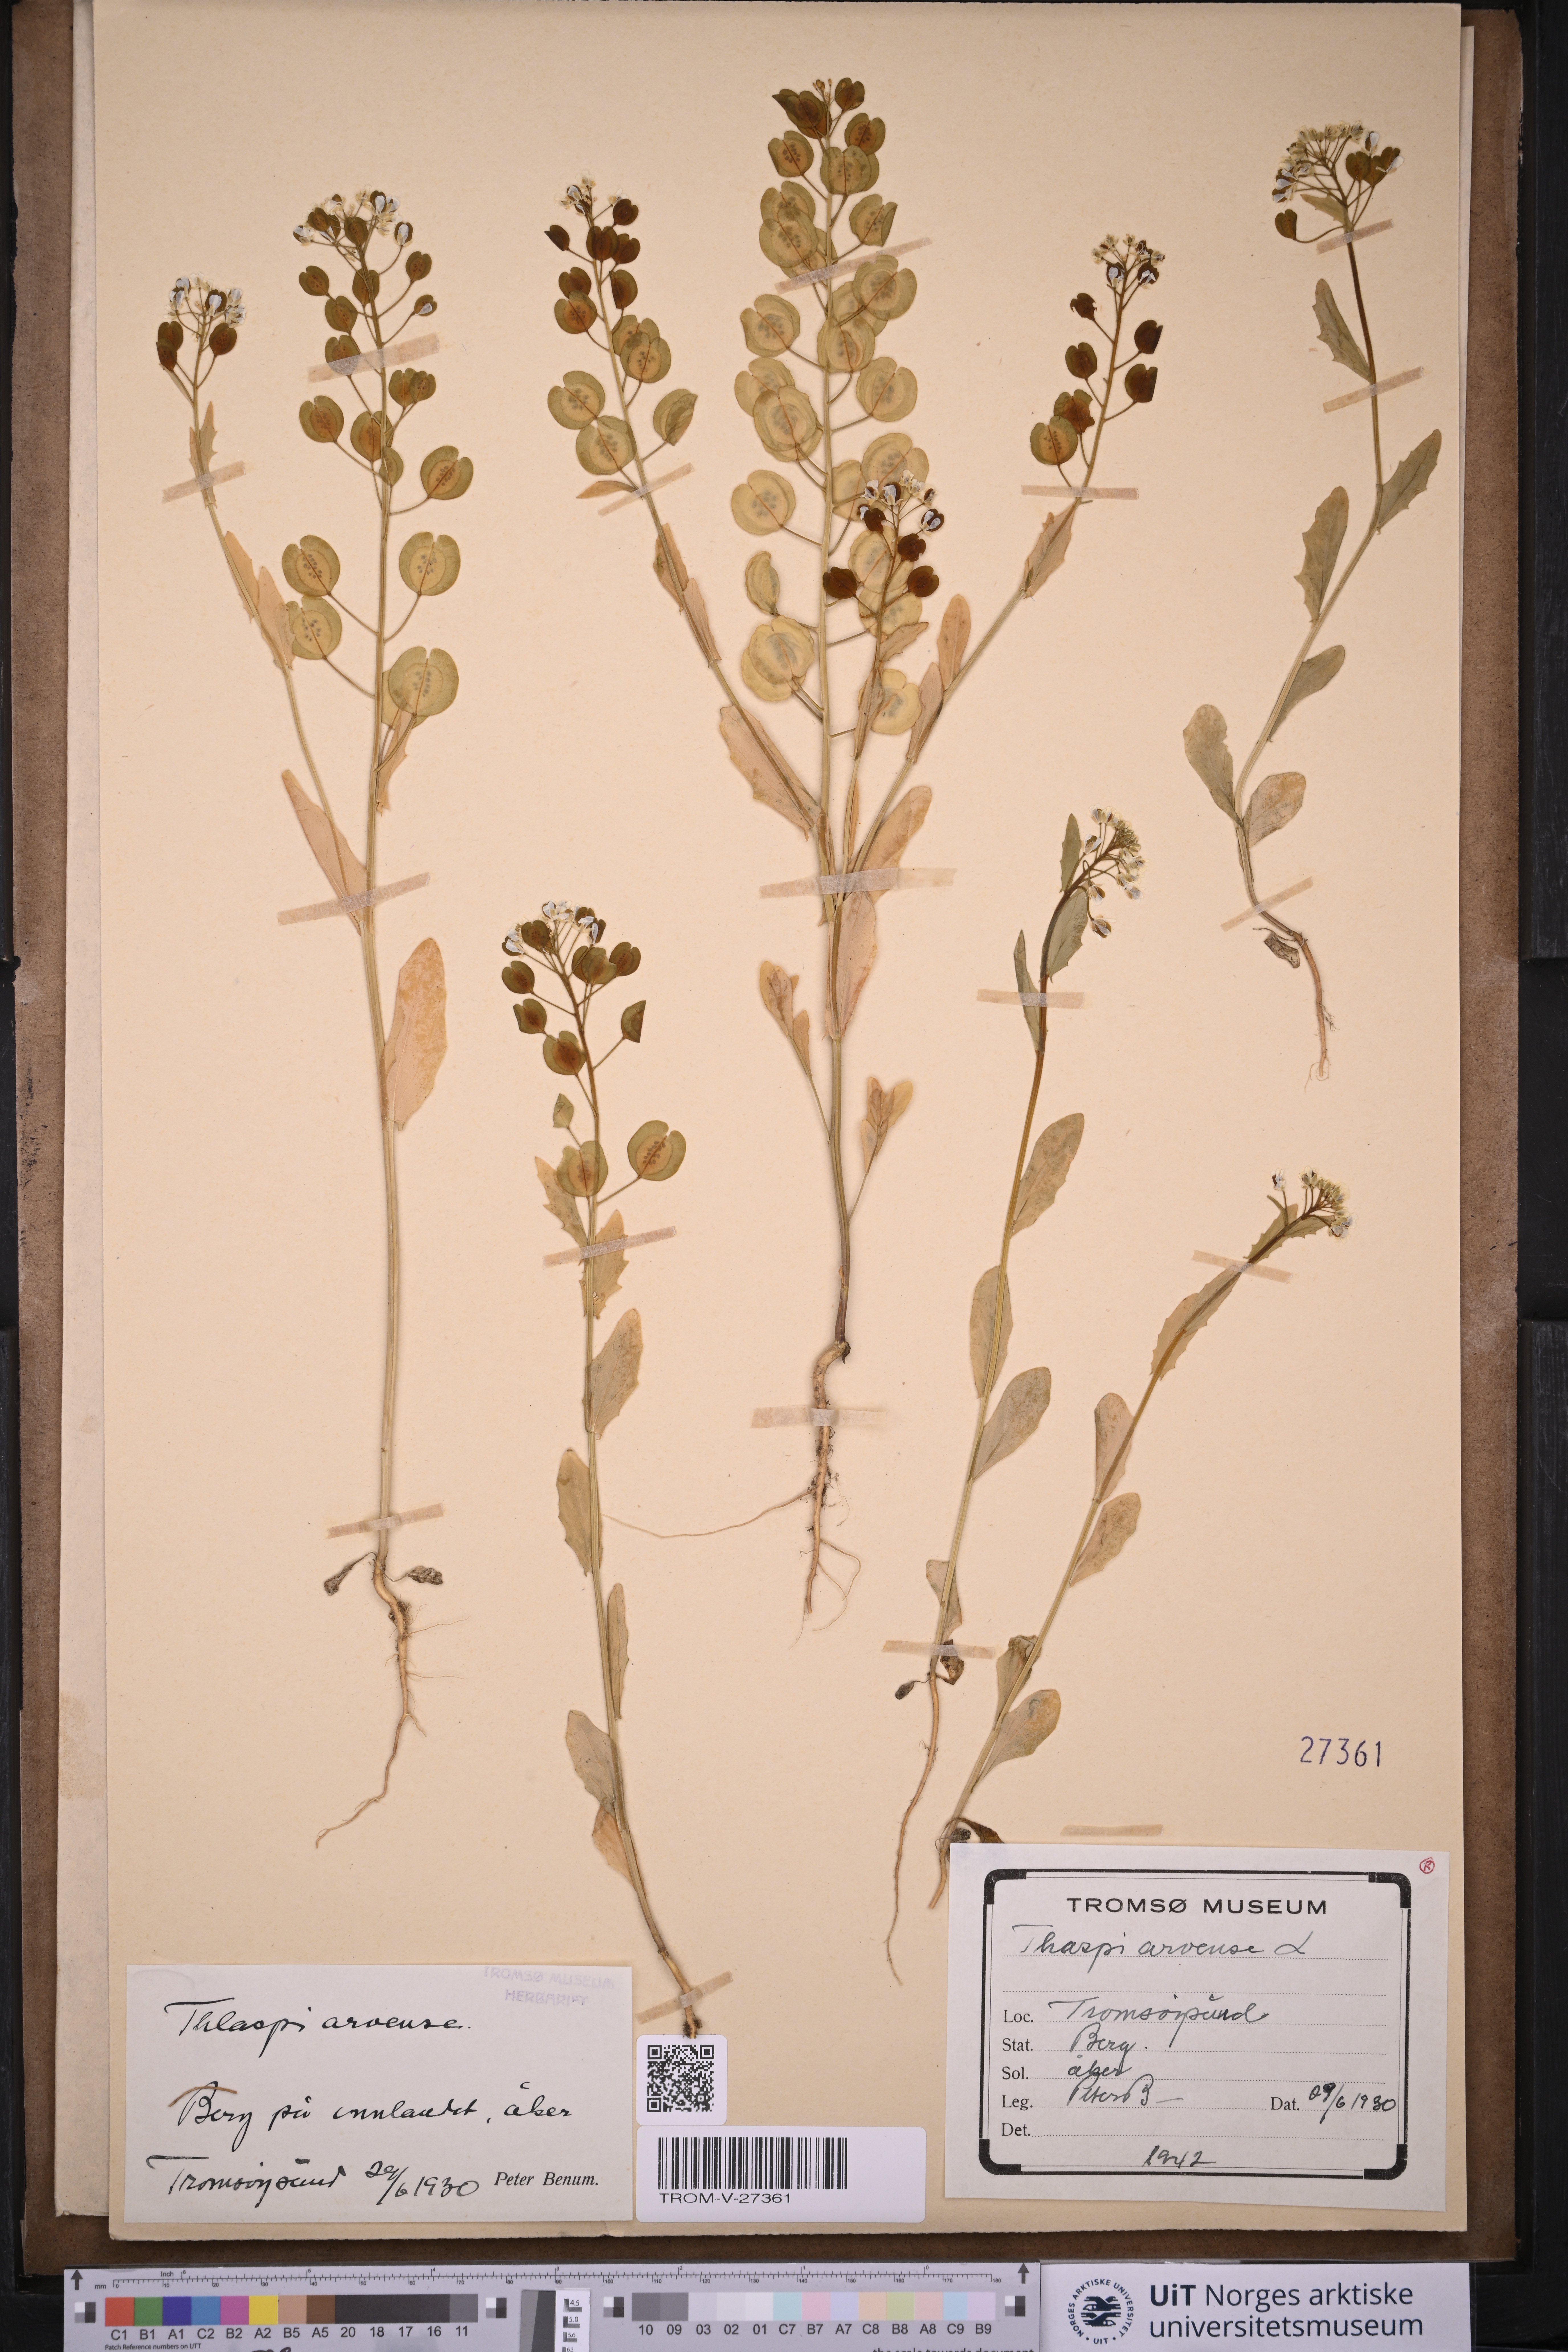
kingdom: Plantae
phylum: Tracheophyta
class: Magnoliopsida
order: Brassicales
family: Brassicaceae
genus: Thlaspi
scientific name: Thlaspi arvense
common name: Field pennycress
